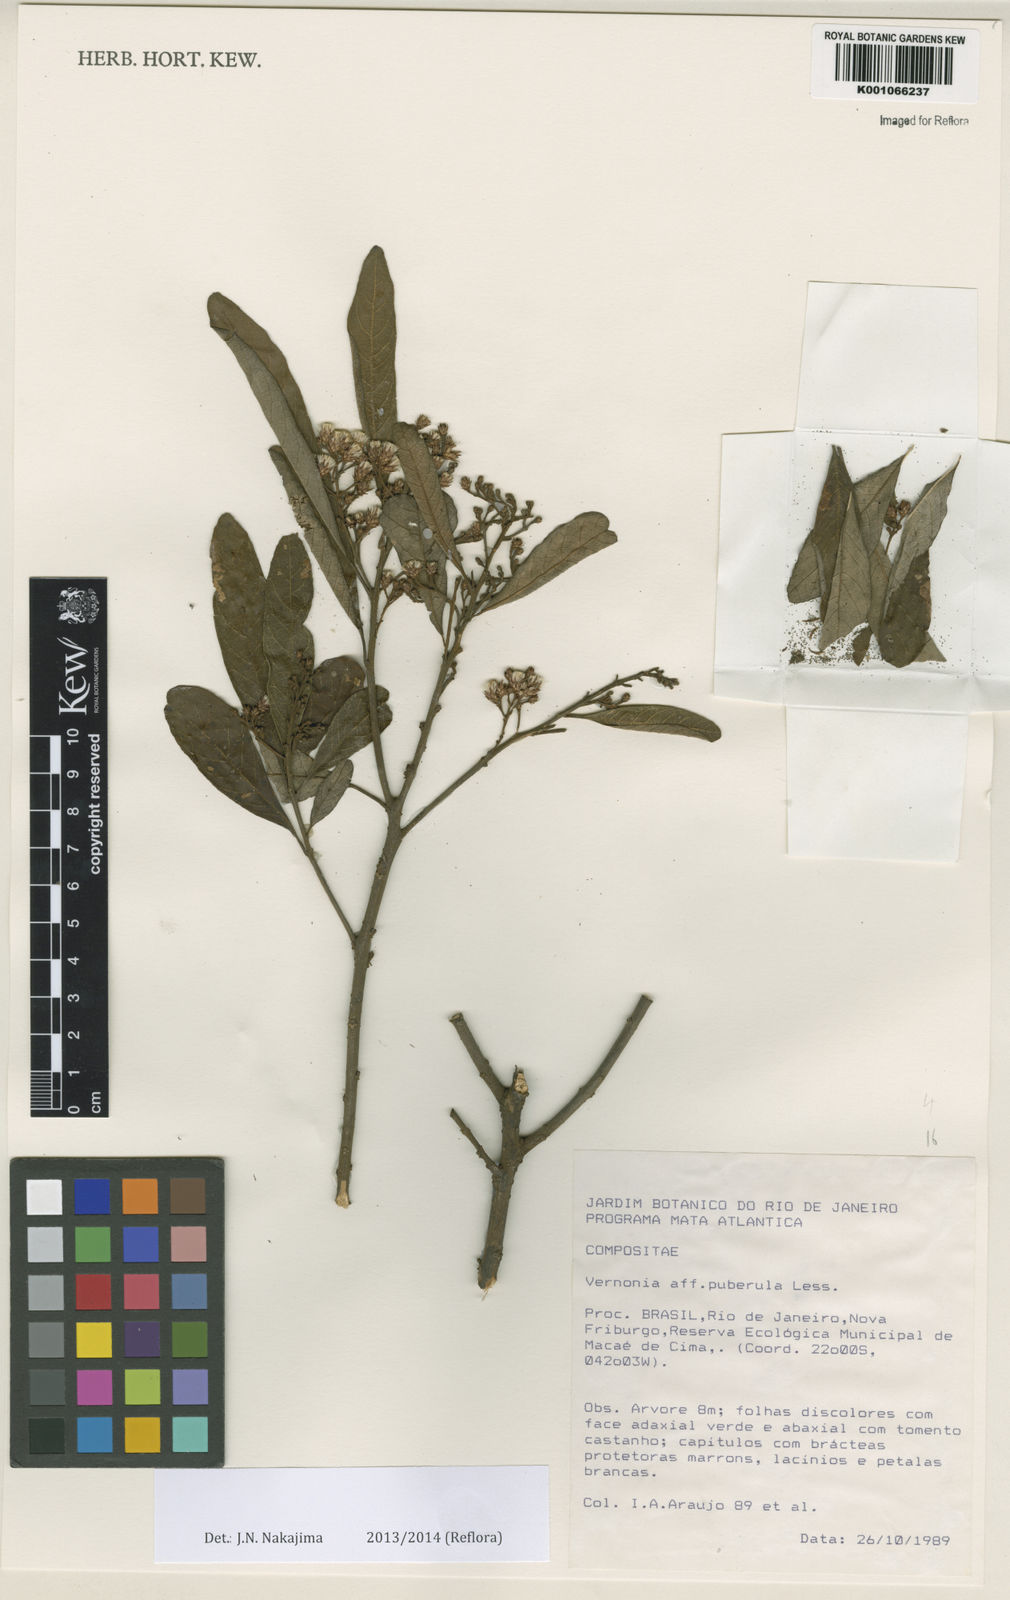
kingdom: Plantae
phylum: Tracheophyta
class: Magnoliopsida
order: Asterales
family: Asteraceae
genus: Vernonanthura
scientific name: Vernonanthura puberula
